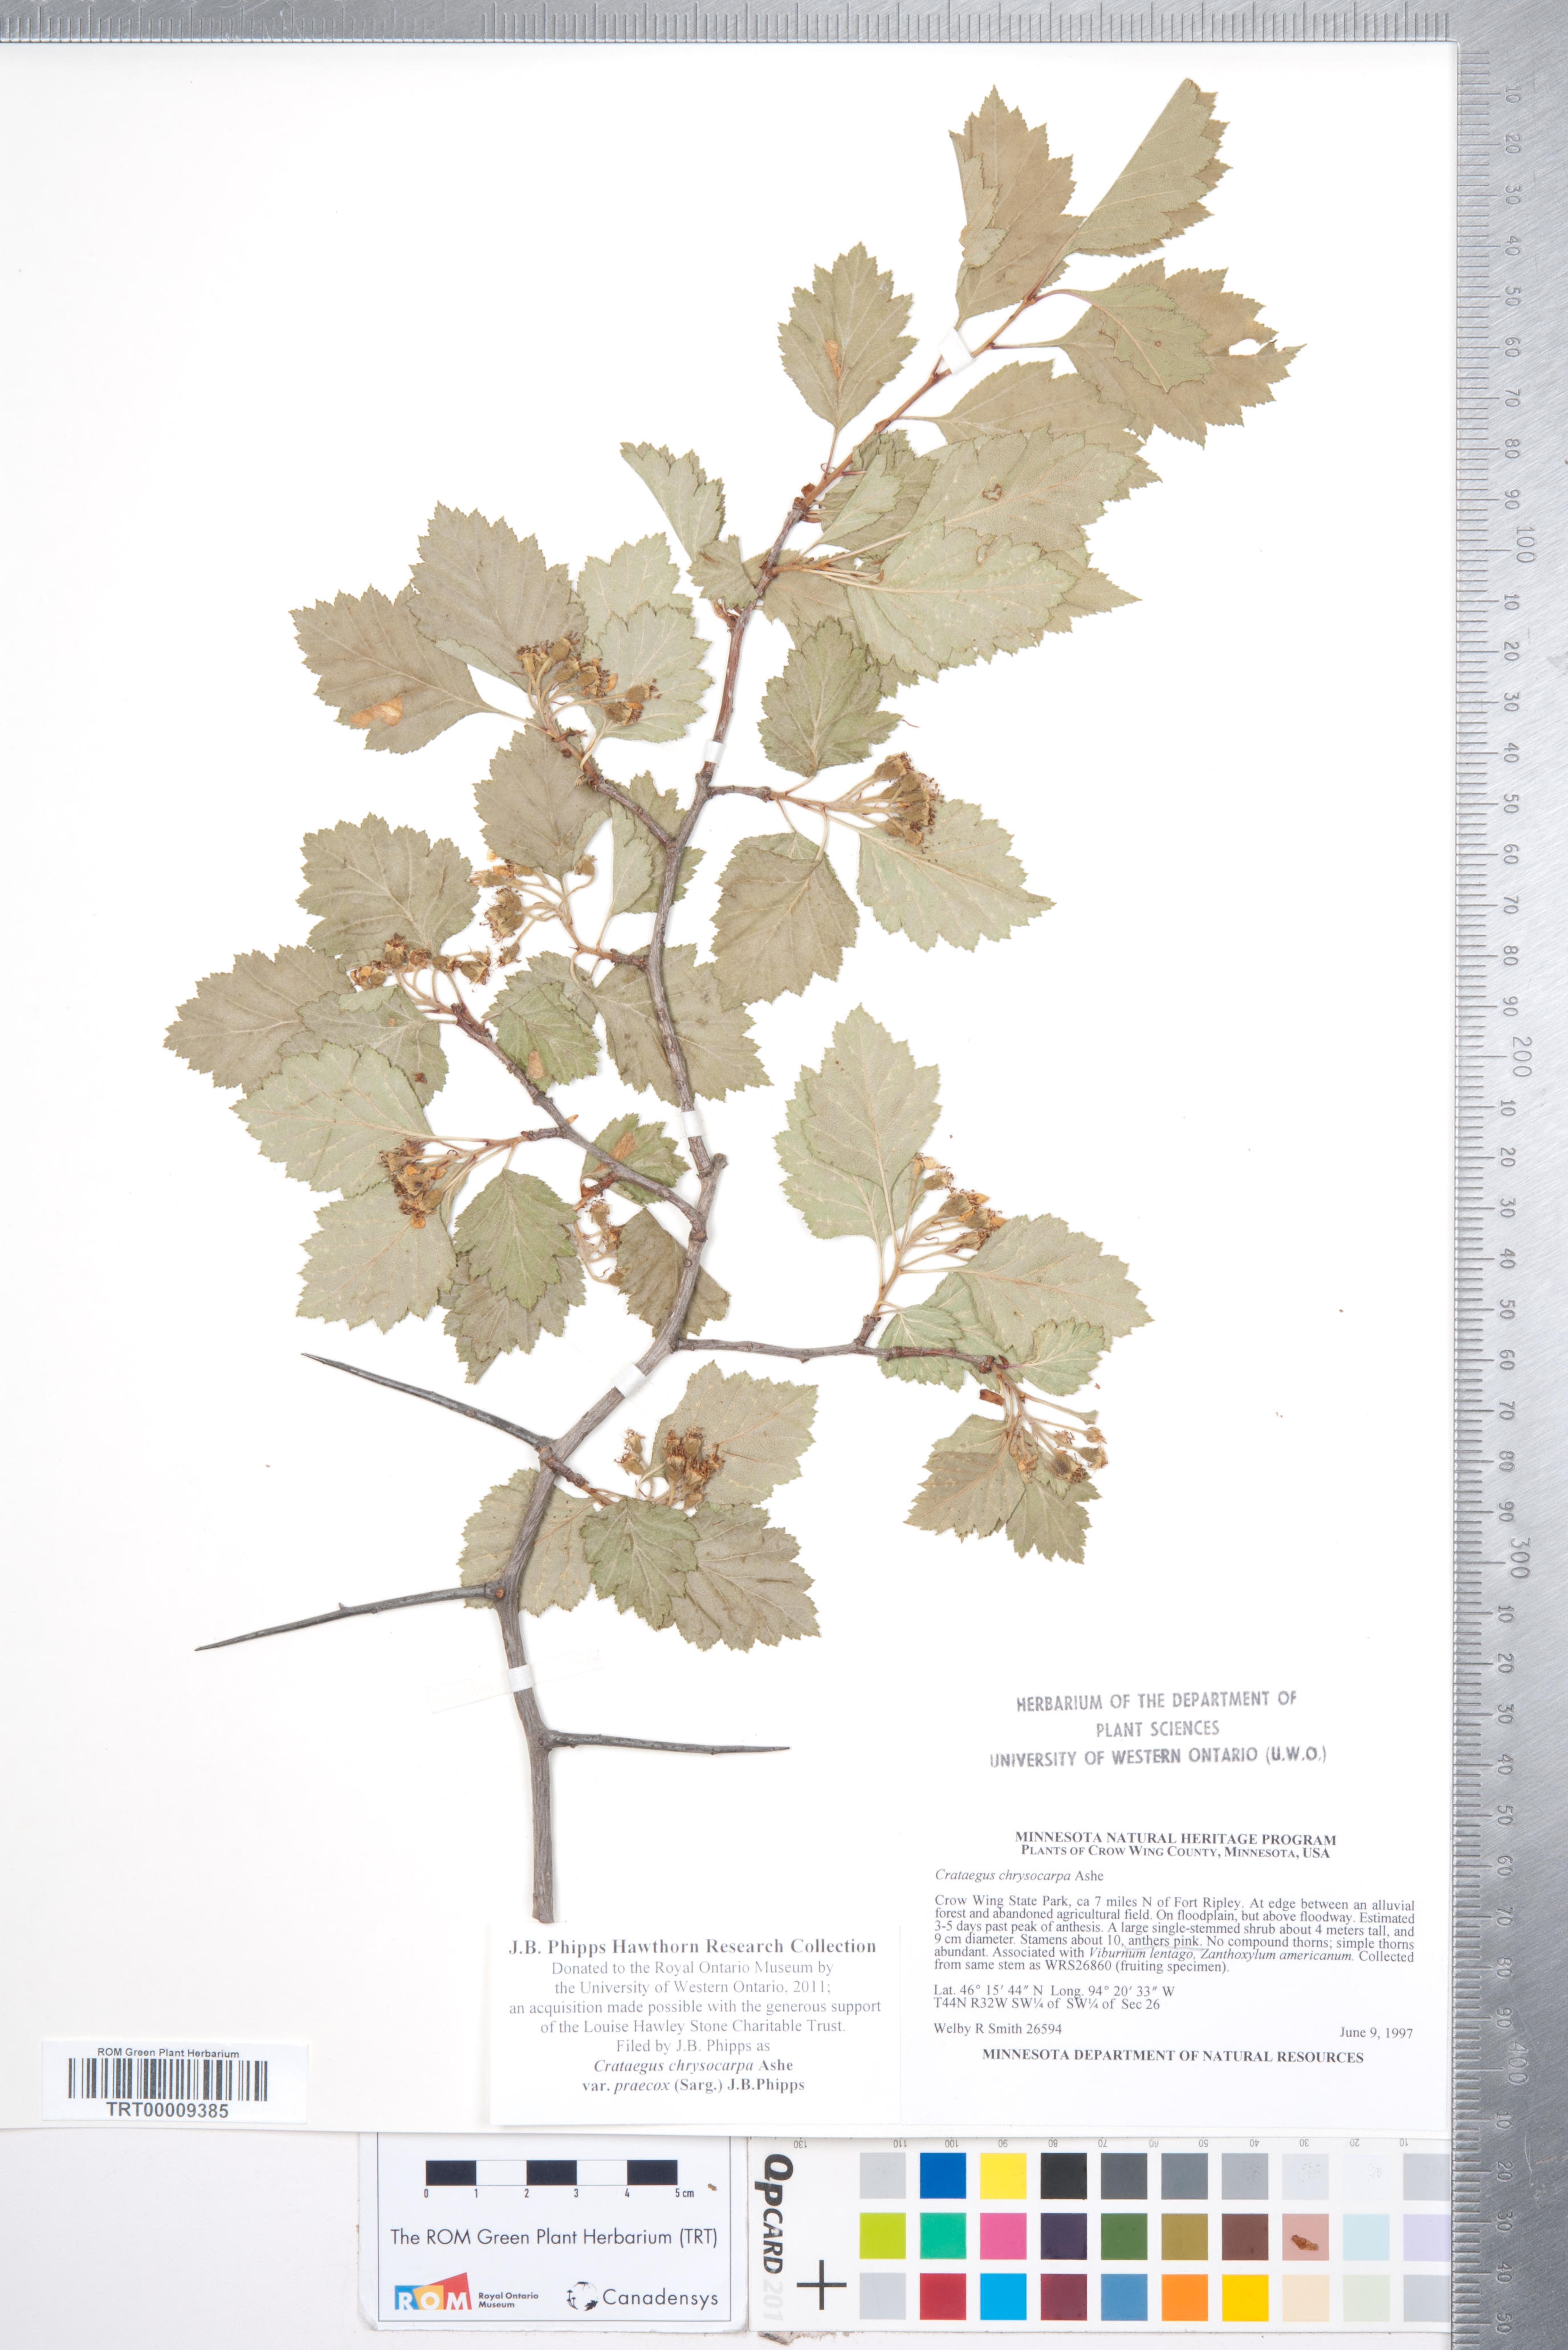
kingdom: Plantae
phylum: Tracheophyta
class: Magnoliopsida
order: Rosales
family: Rosaceae
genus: Crataegus
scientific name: Crataegus chrysocarpa
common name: Fire-berry hawthorn
